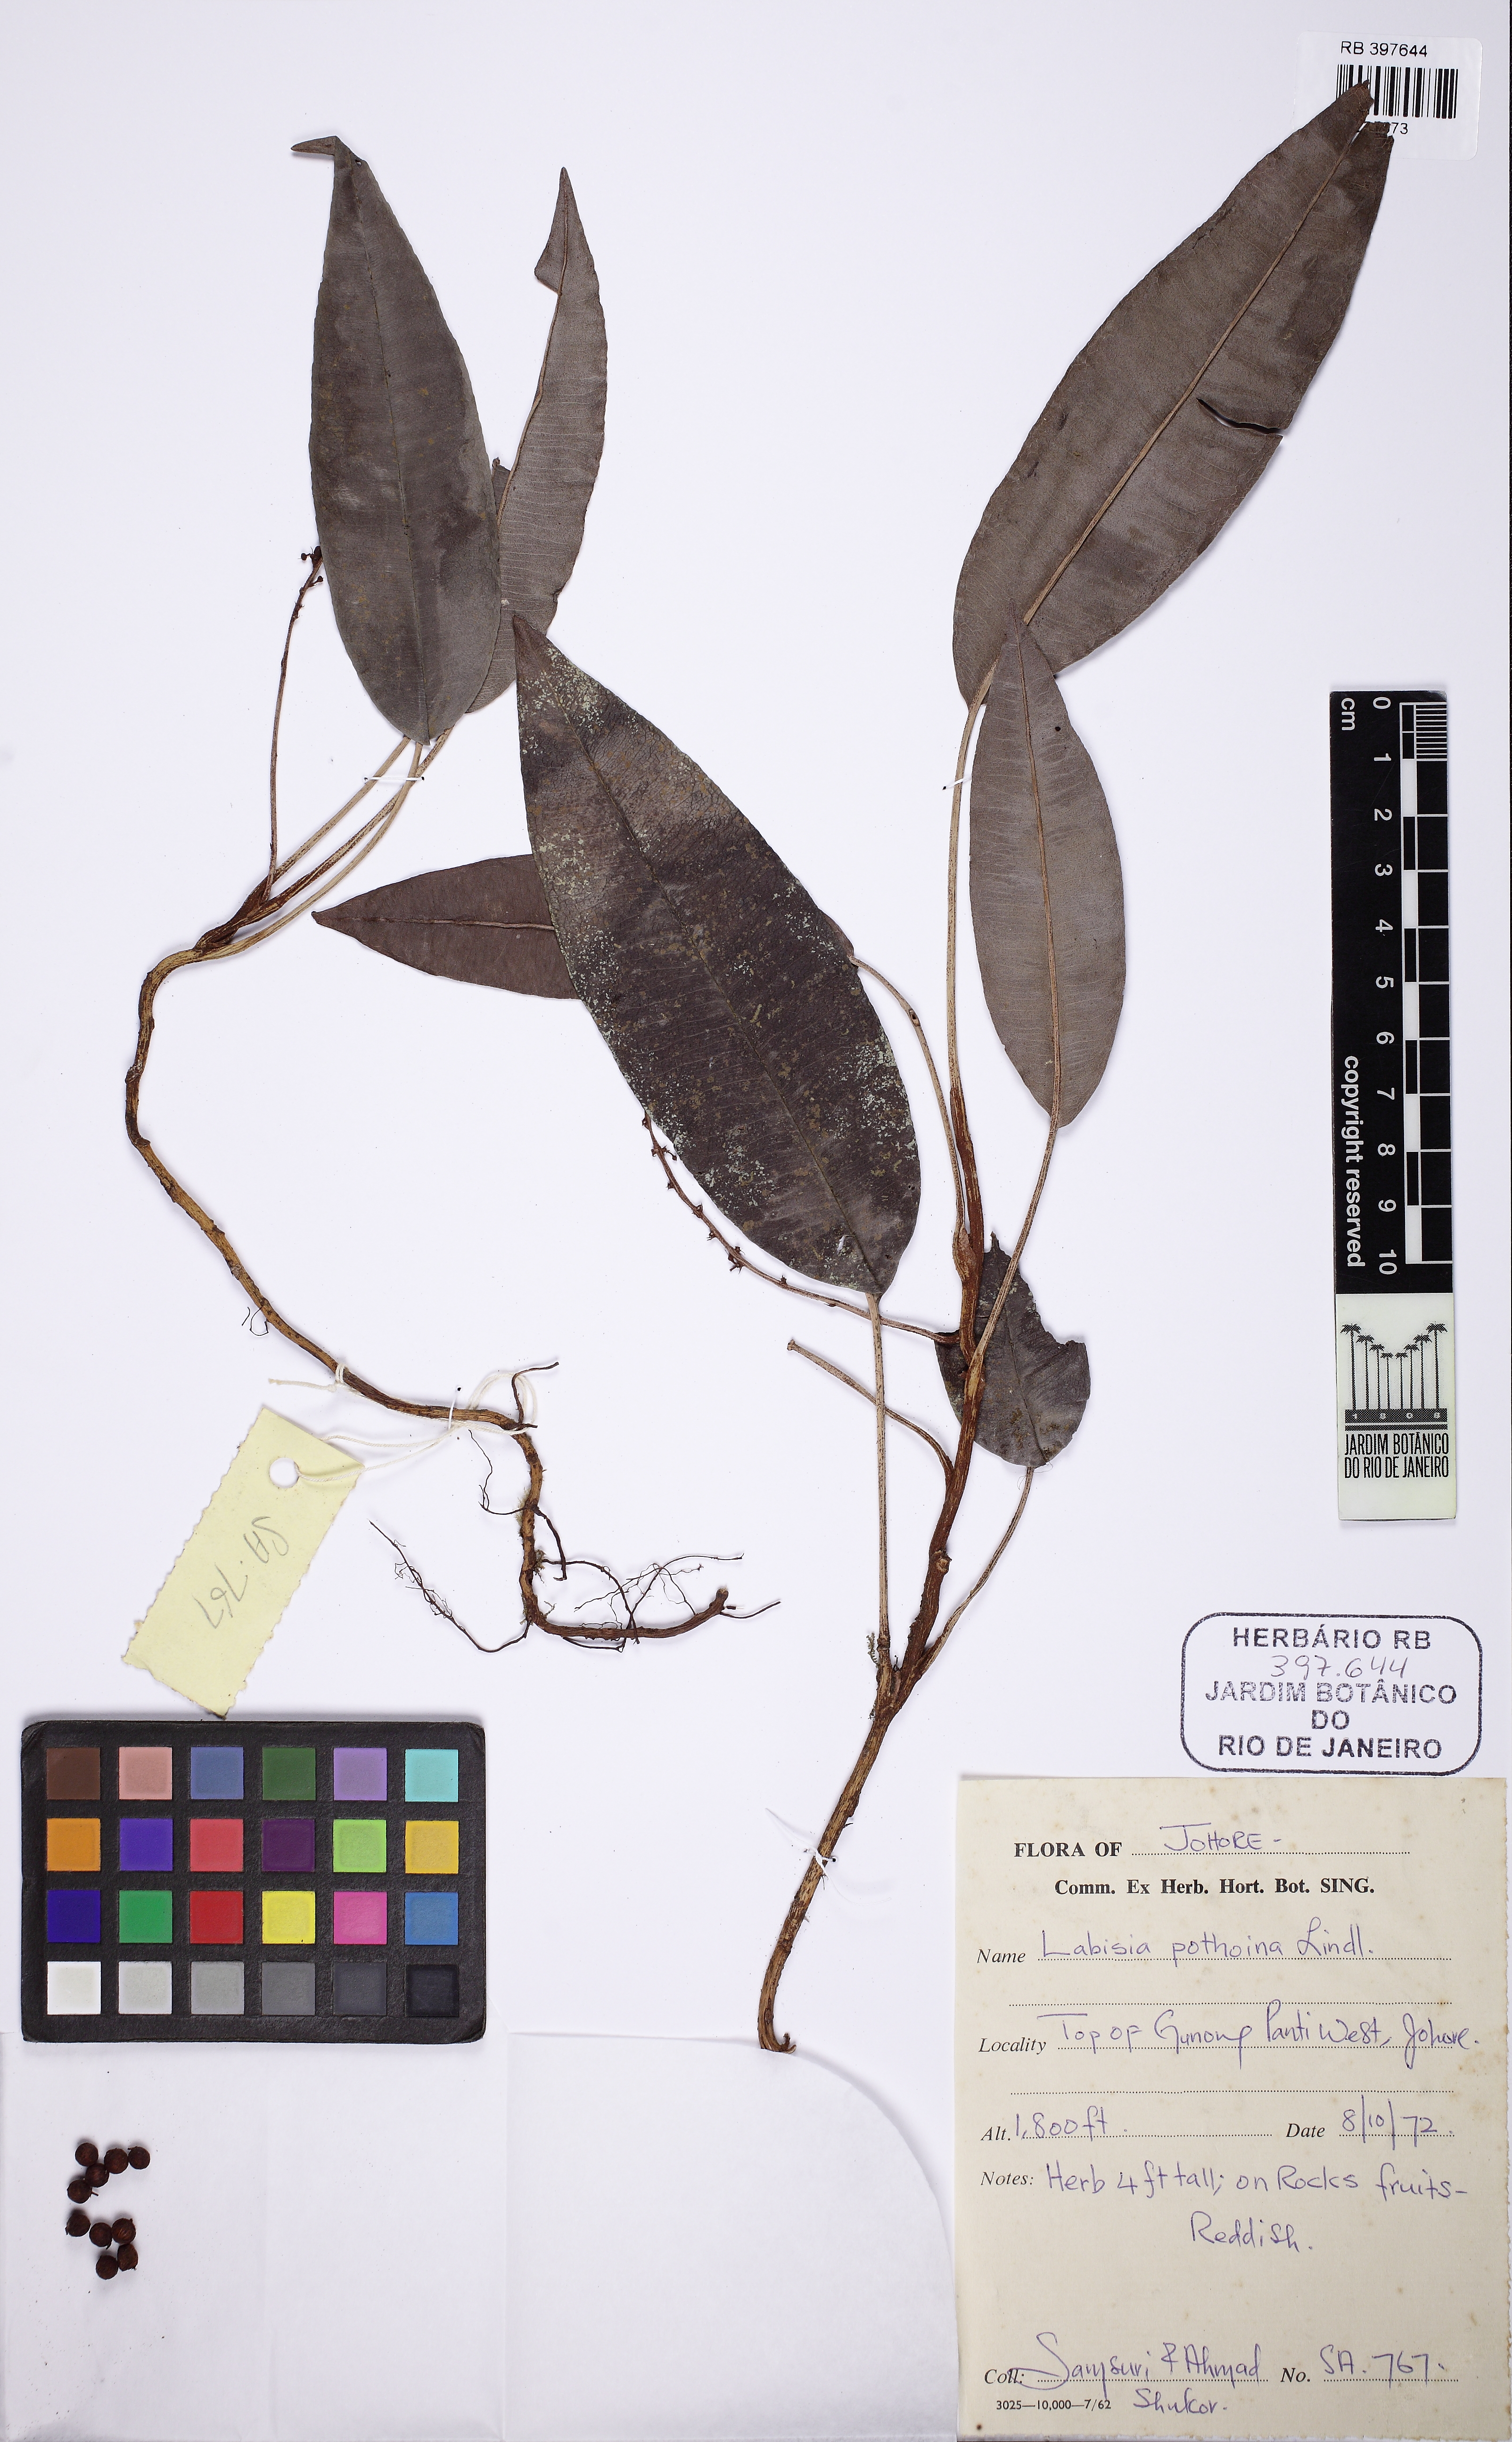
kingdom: Plantae
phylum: Tracheophyta
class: Magnoliopsida
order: Ericales
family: Primulaceae
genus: Labisia
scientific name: Labisia pumila
